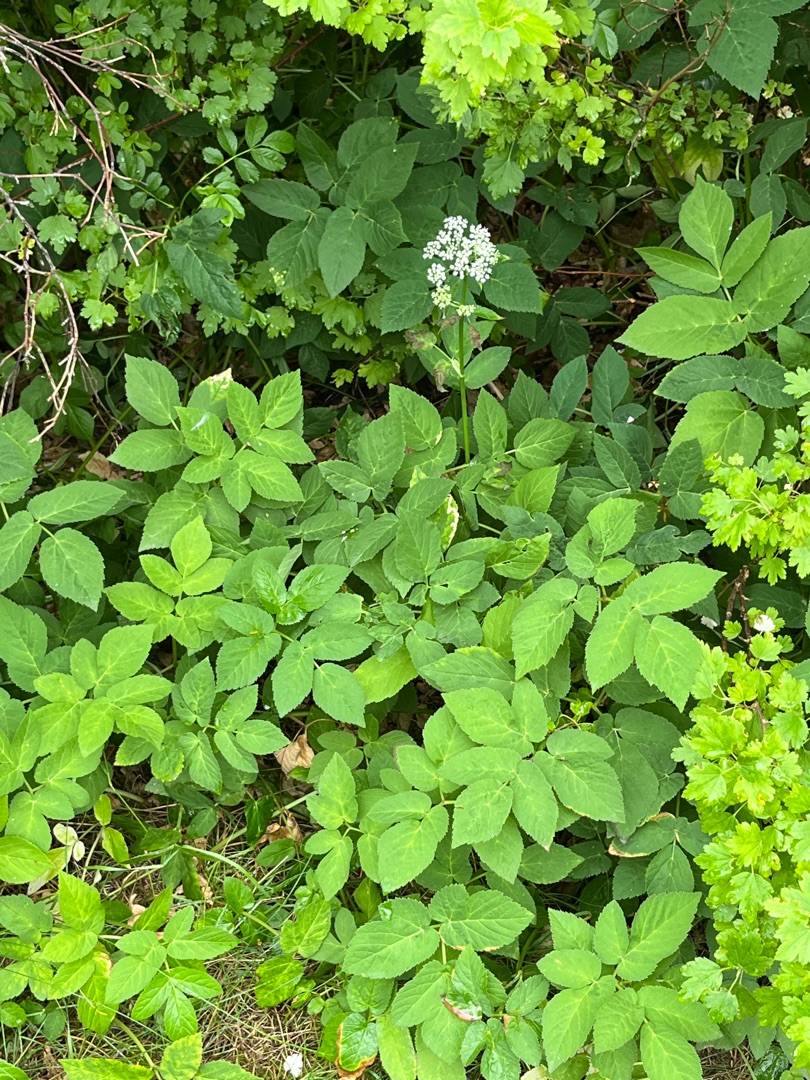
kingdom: Plantae
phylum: Tracheophyta
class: Magnoliopsida
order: Apiales
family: Apiaceae
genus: Aegopodium
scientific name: Aegopodium podagraria
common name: Skvalderkål
